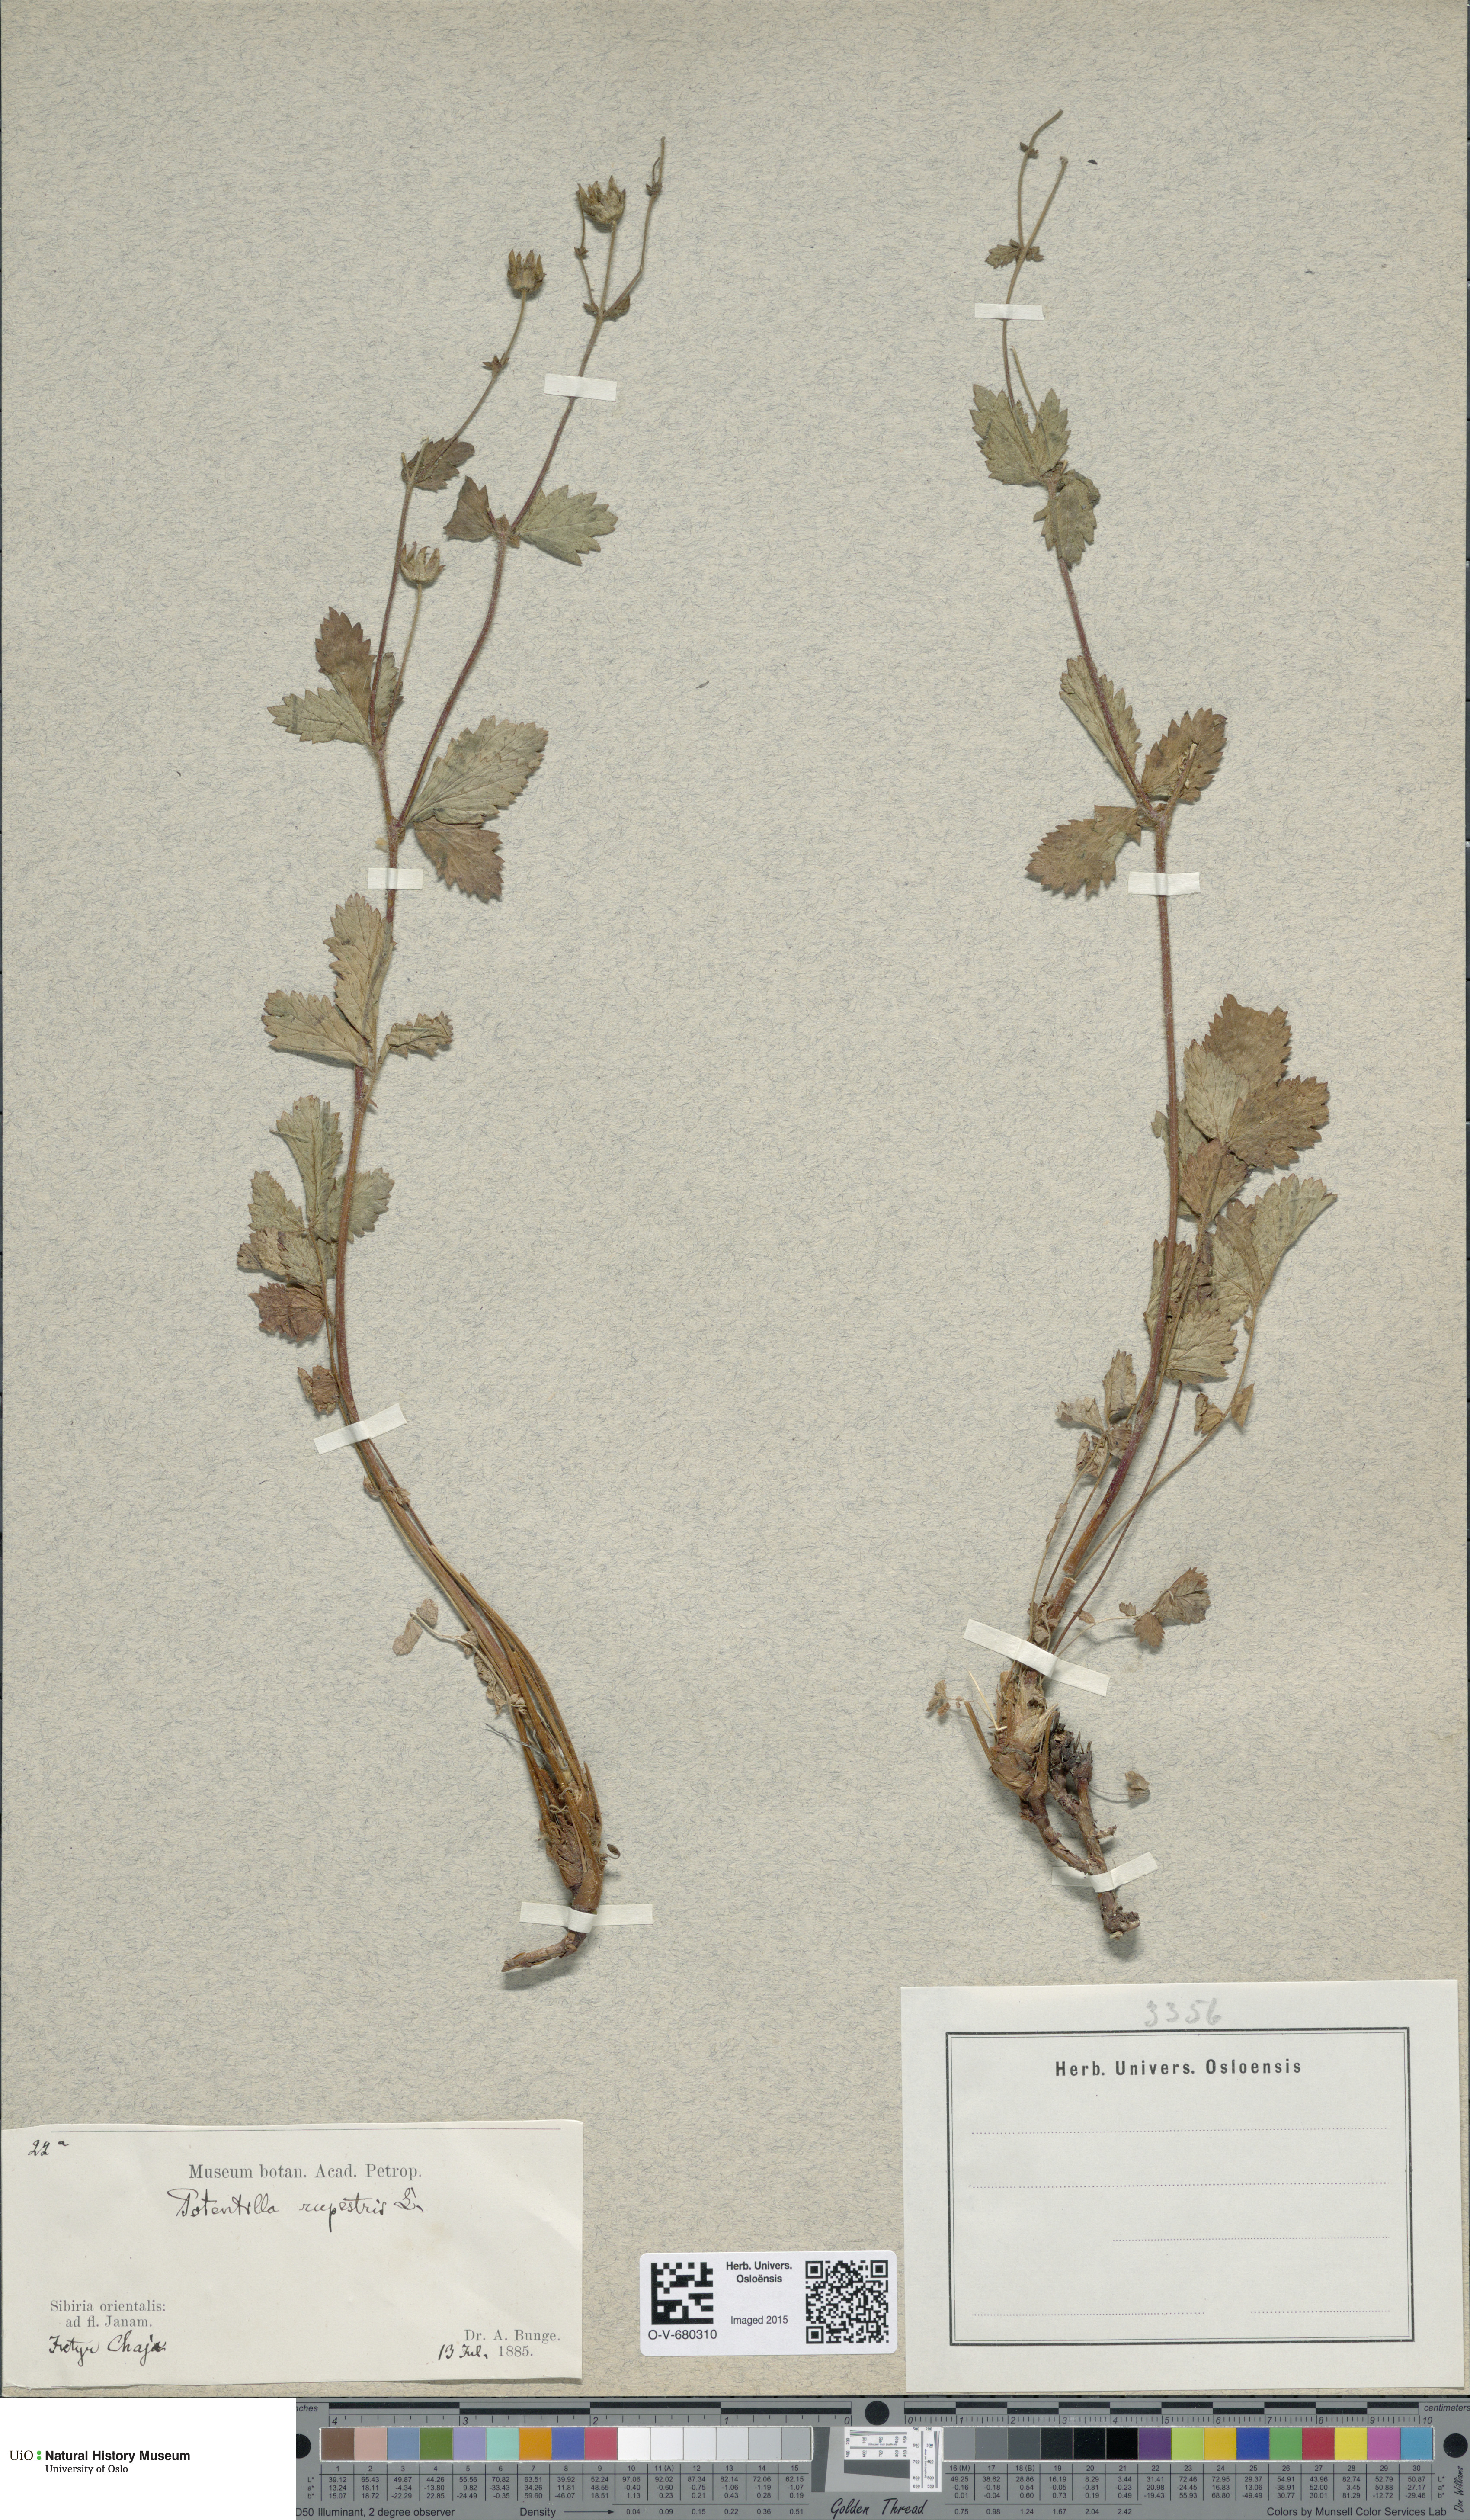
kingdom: Plantae
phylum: Tracheophyta
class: Magnoliopsida
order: Rosales
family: Rosaceae
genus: Drymocallis
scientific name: Drymocallis rupestris
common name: Rock cinquefoil
